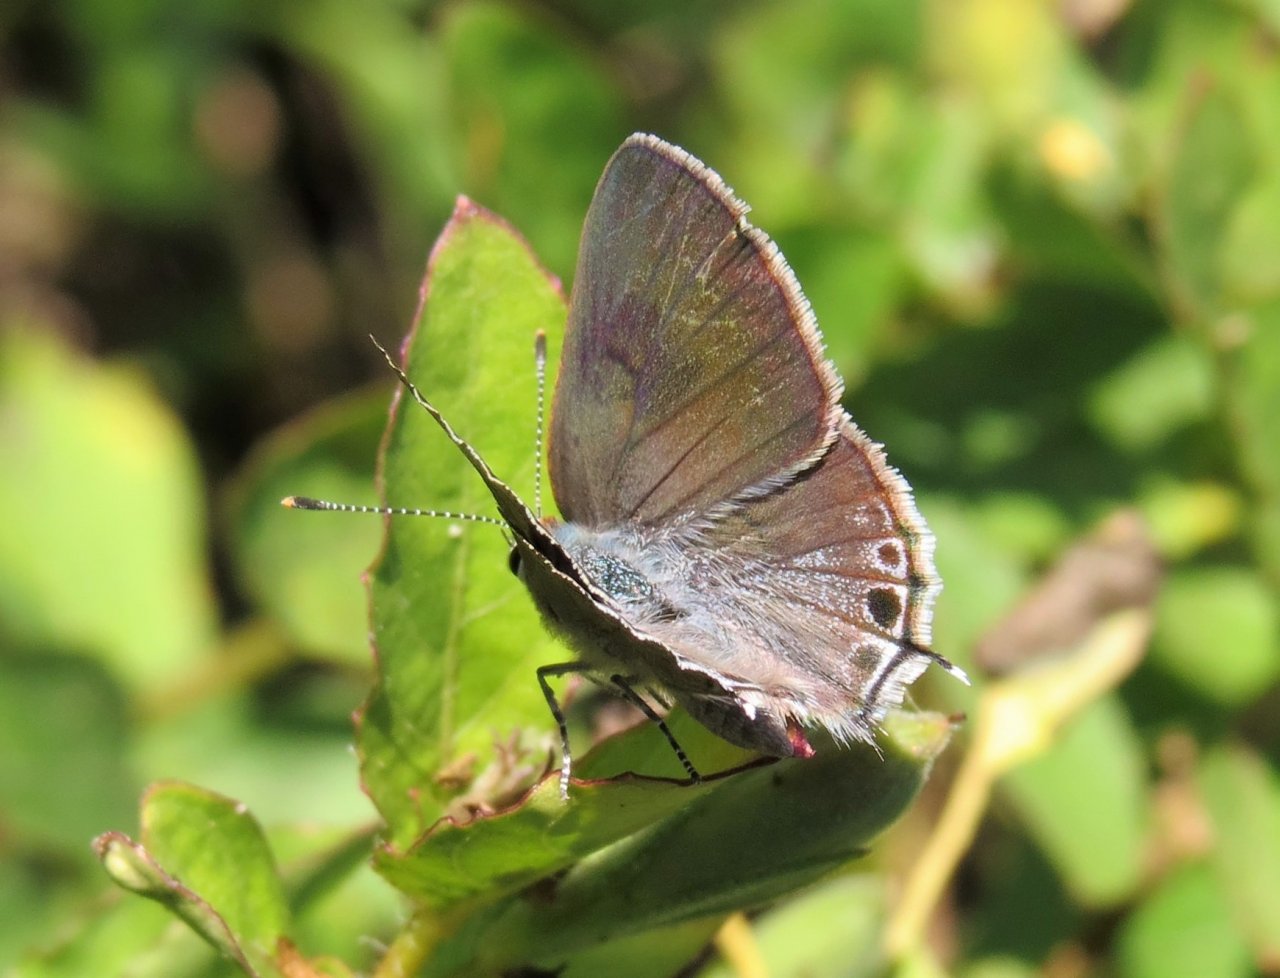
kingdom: Animalia
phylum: Arthropoda
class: Insecta
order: Lepidoptera
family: Lycaenidae
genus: Callicista
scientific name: Callicista columella
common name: Mallow Scrub-Hairstreak
